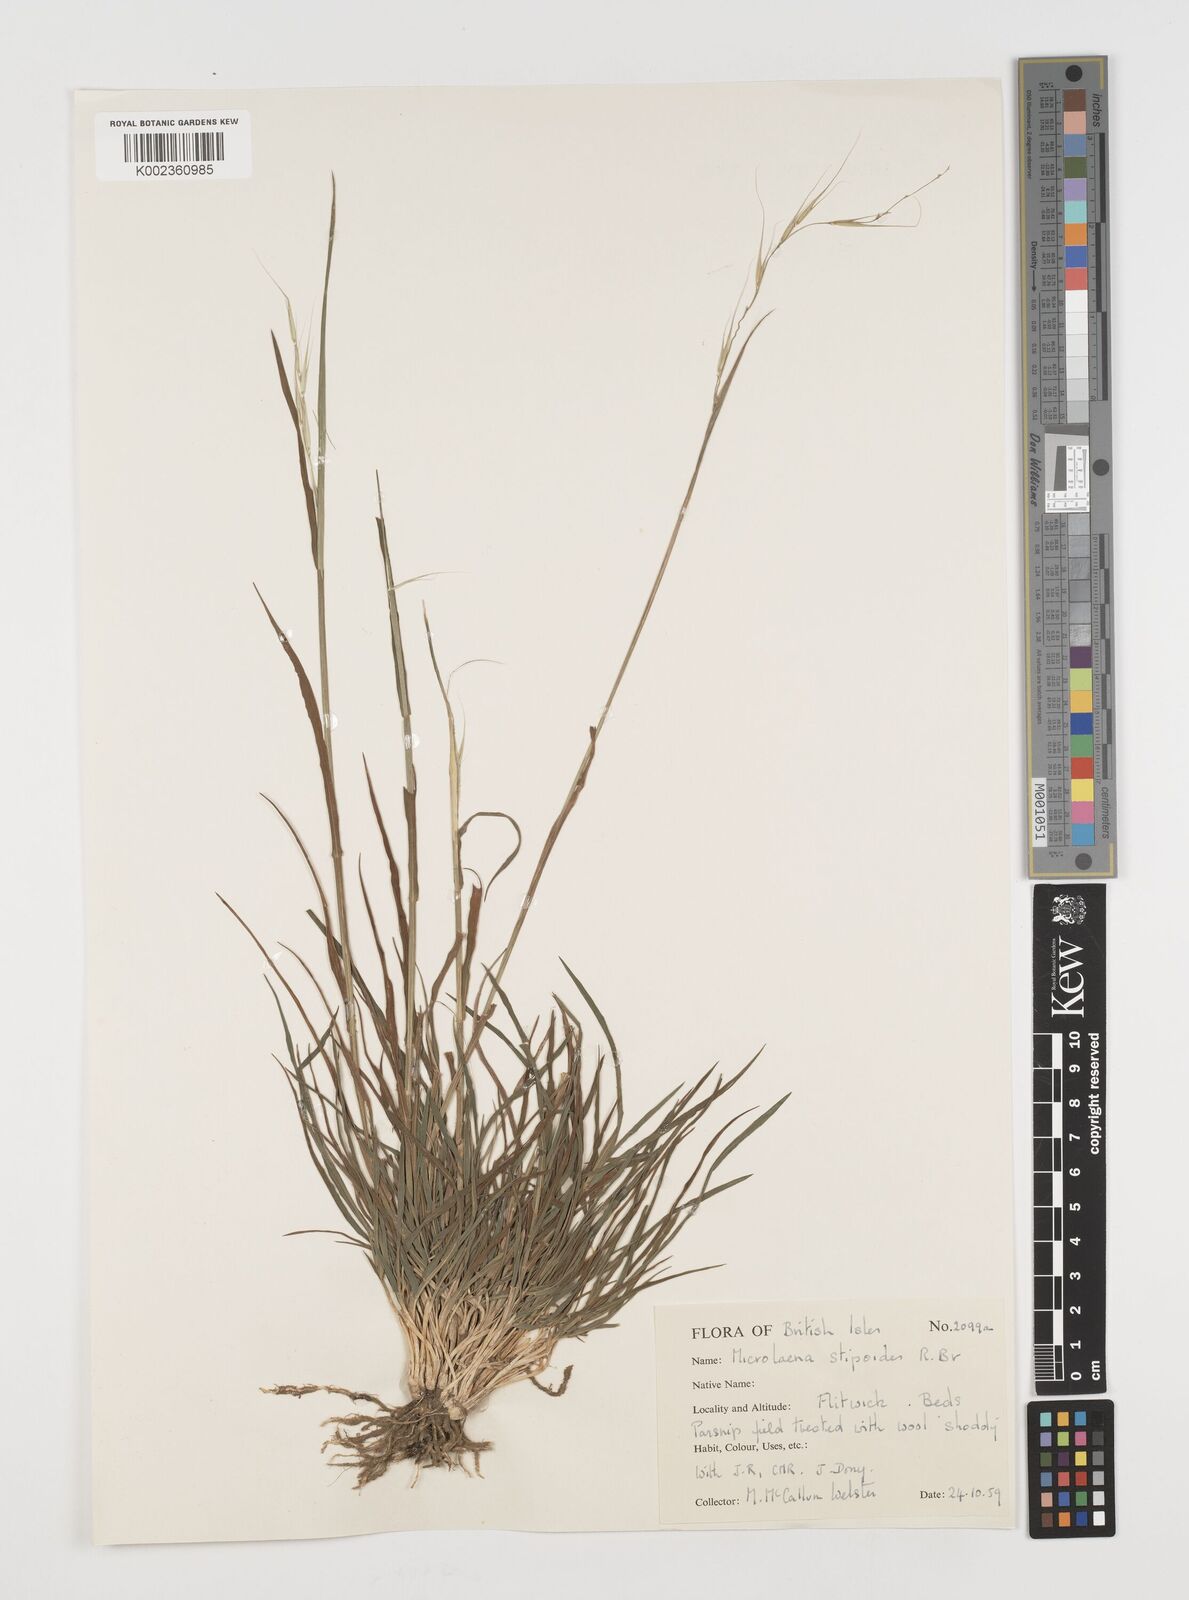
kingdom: Plantae
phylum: Tracheophyta
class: Liliopsida
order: Poales
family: Poaceae
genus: Microlaena
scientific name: Microlaena stipoides
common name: Meadow ricegrass
